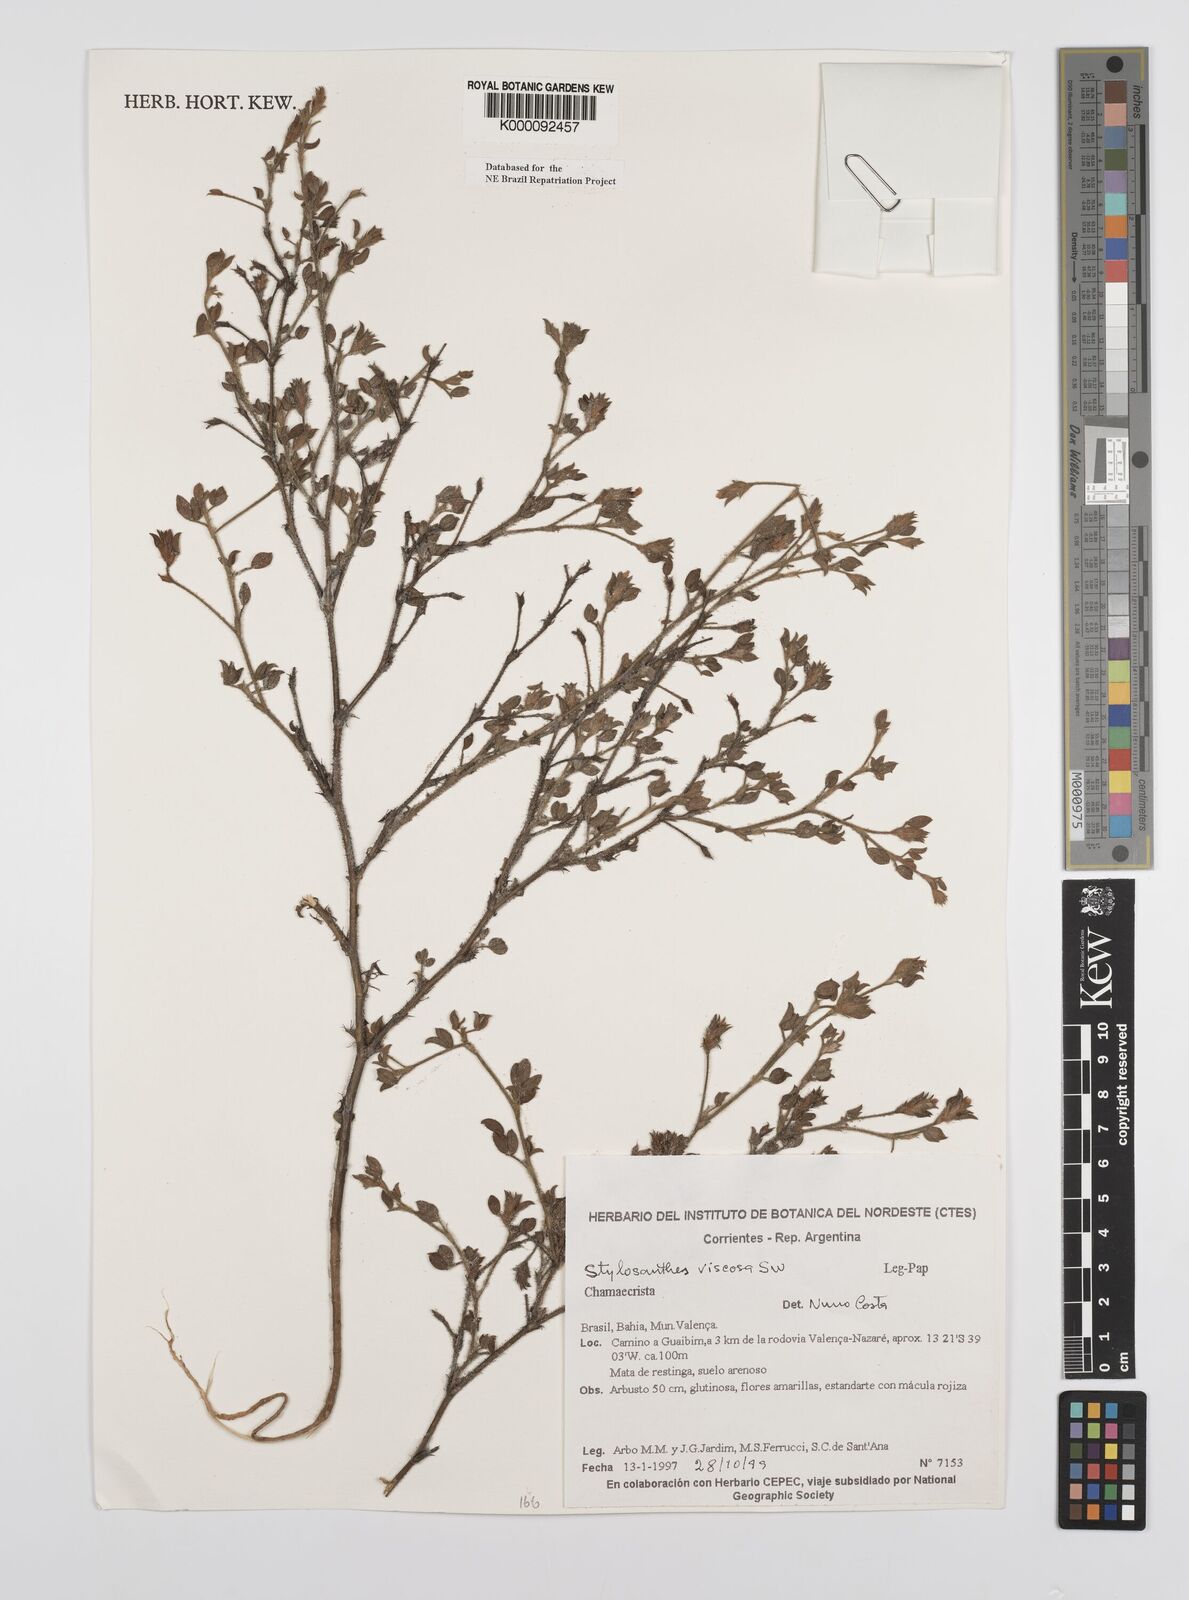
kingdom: Plantae
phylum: Tracheophyta
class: Magnoliopsida
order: Fabales
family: Fabaceae
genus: Stylosanthes
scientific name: Stylosanthes viscosa
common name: Viscid pencil-flower
